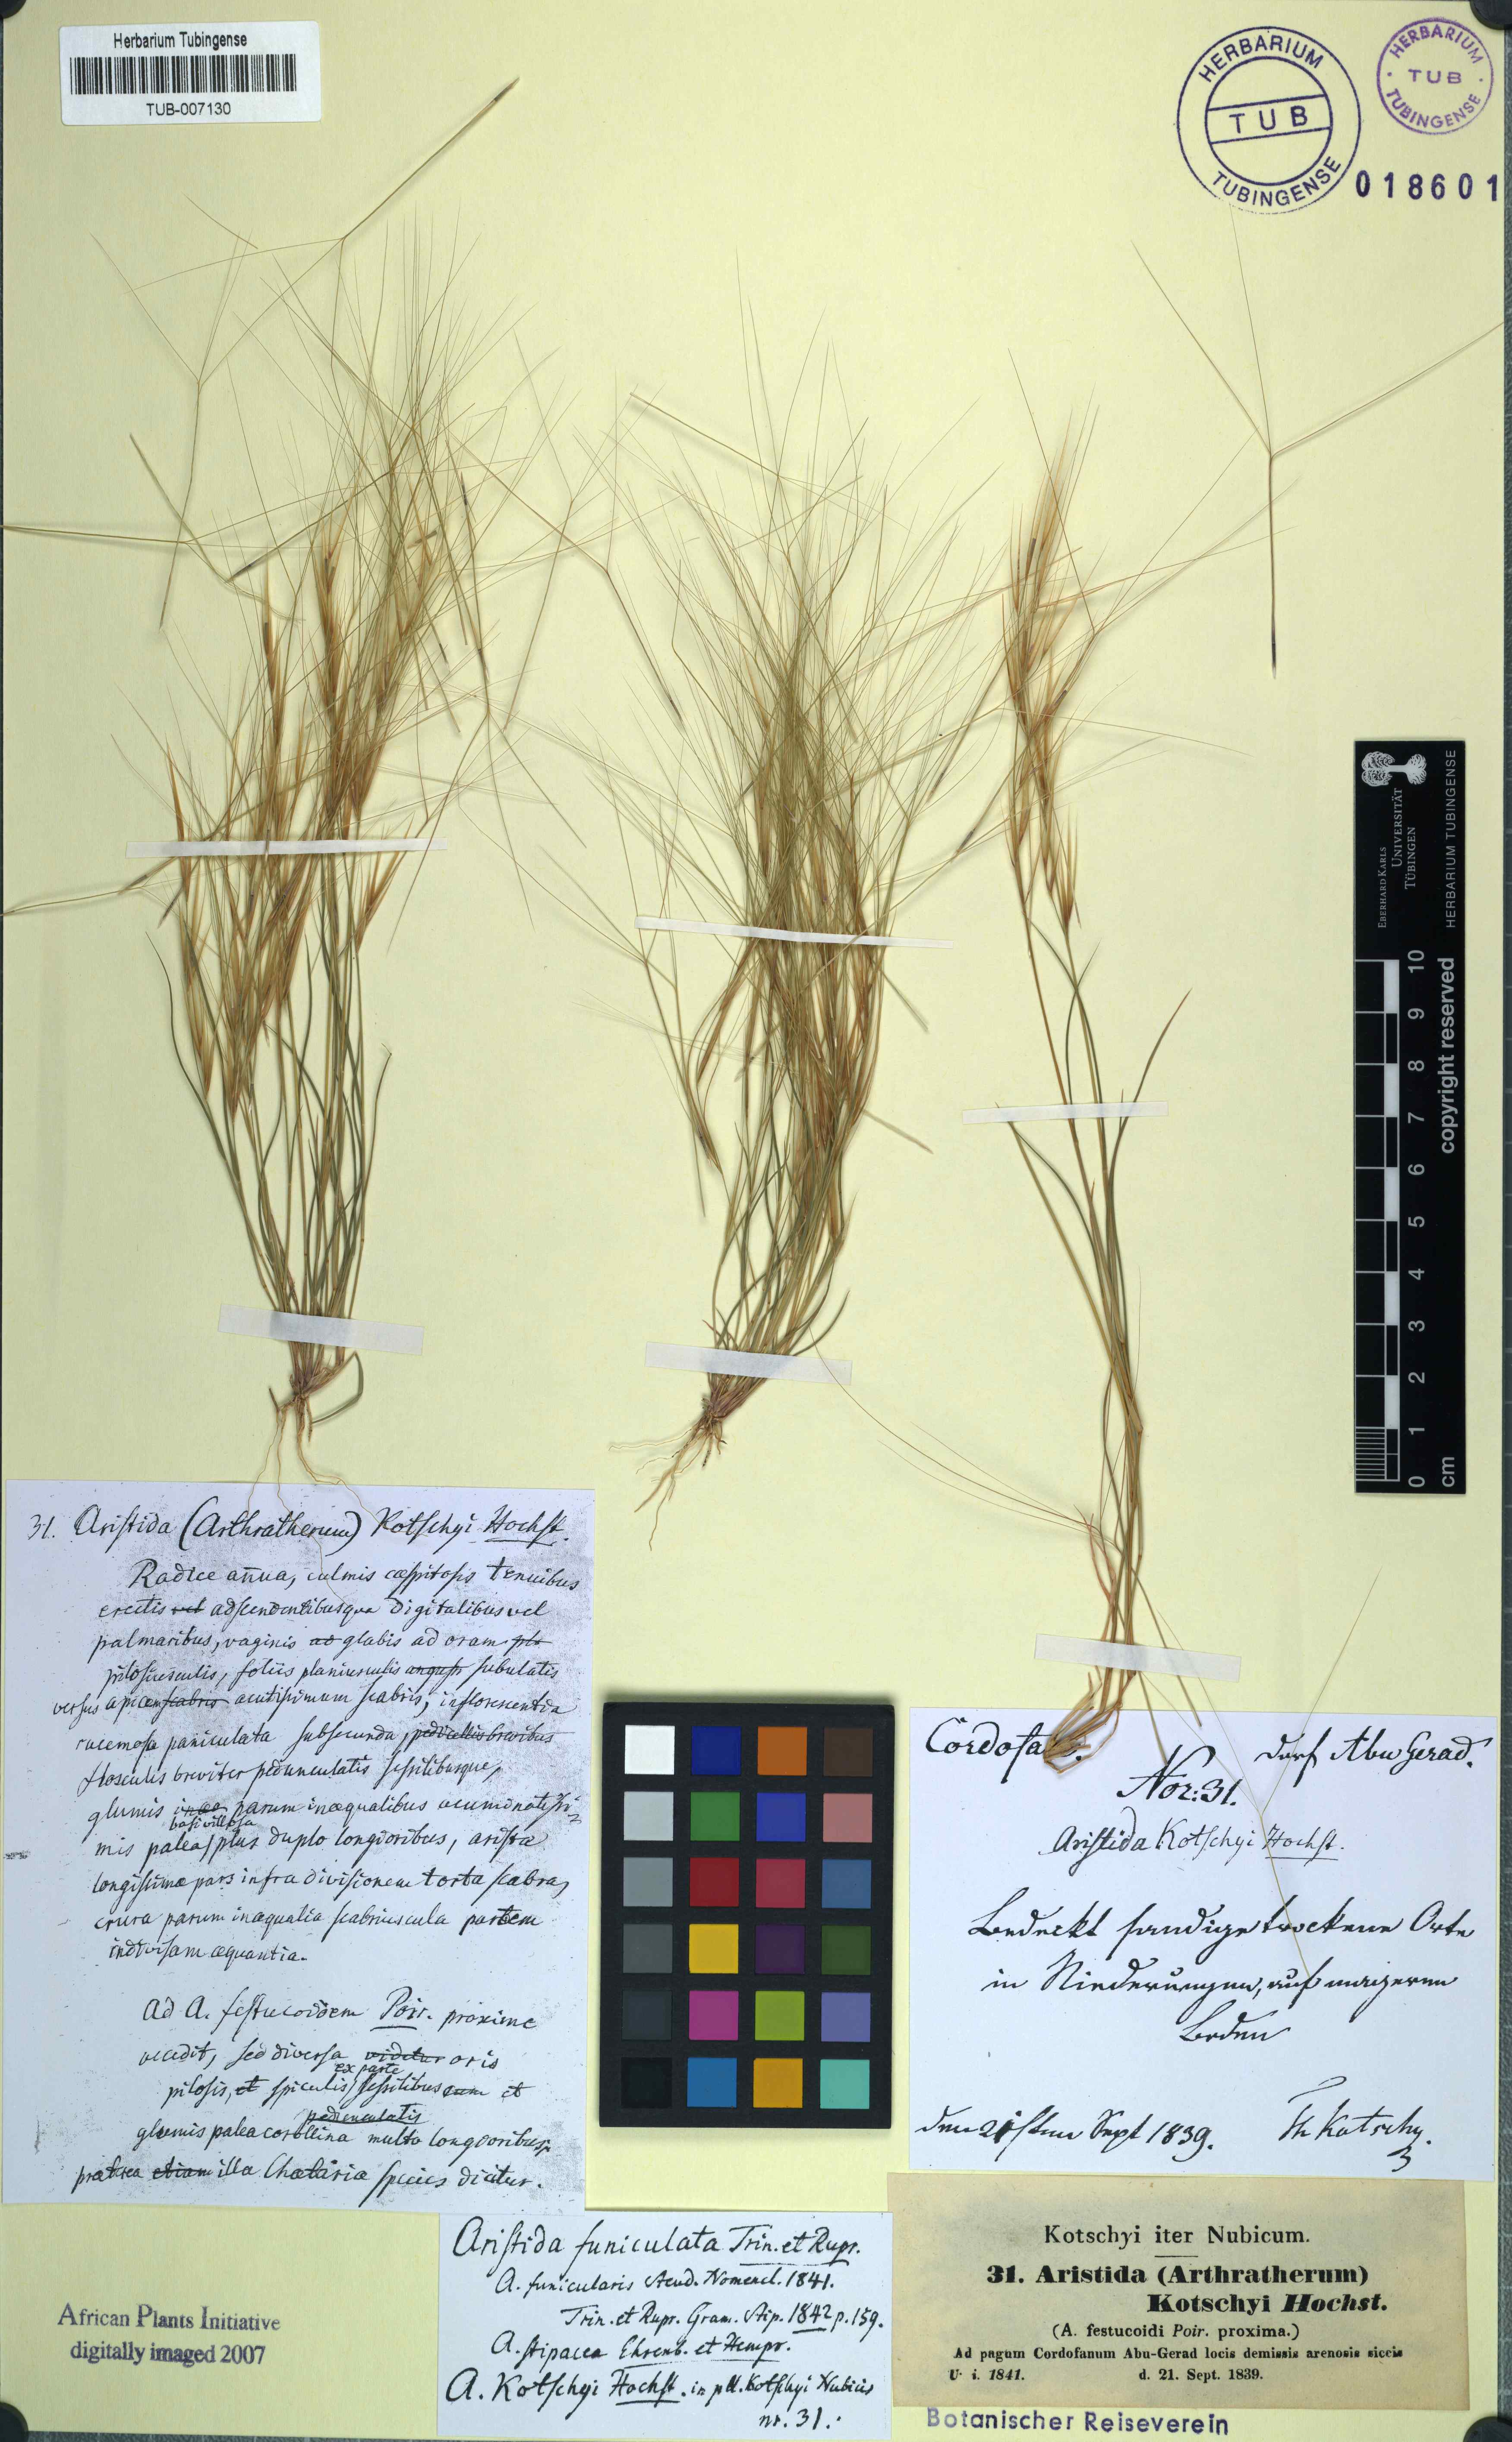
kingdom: Plantae
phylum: Tracheophyta
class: Liliopsida
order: Poales
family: Poaceae
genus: Aristida
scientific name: Aristida funiculata
